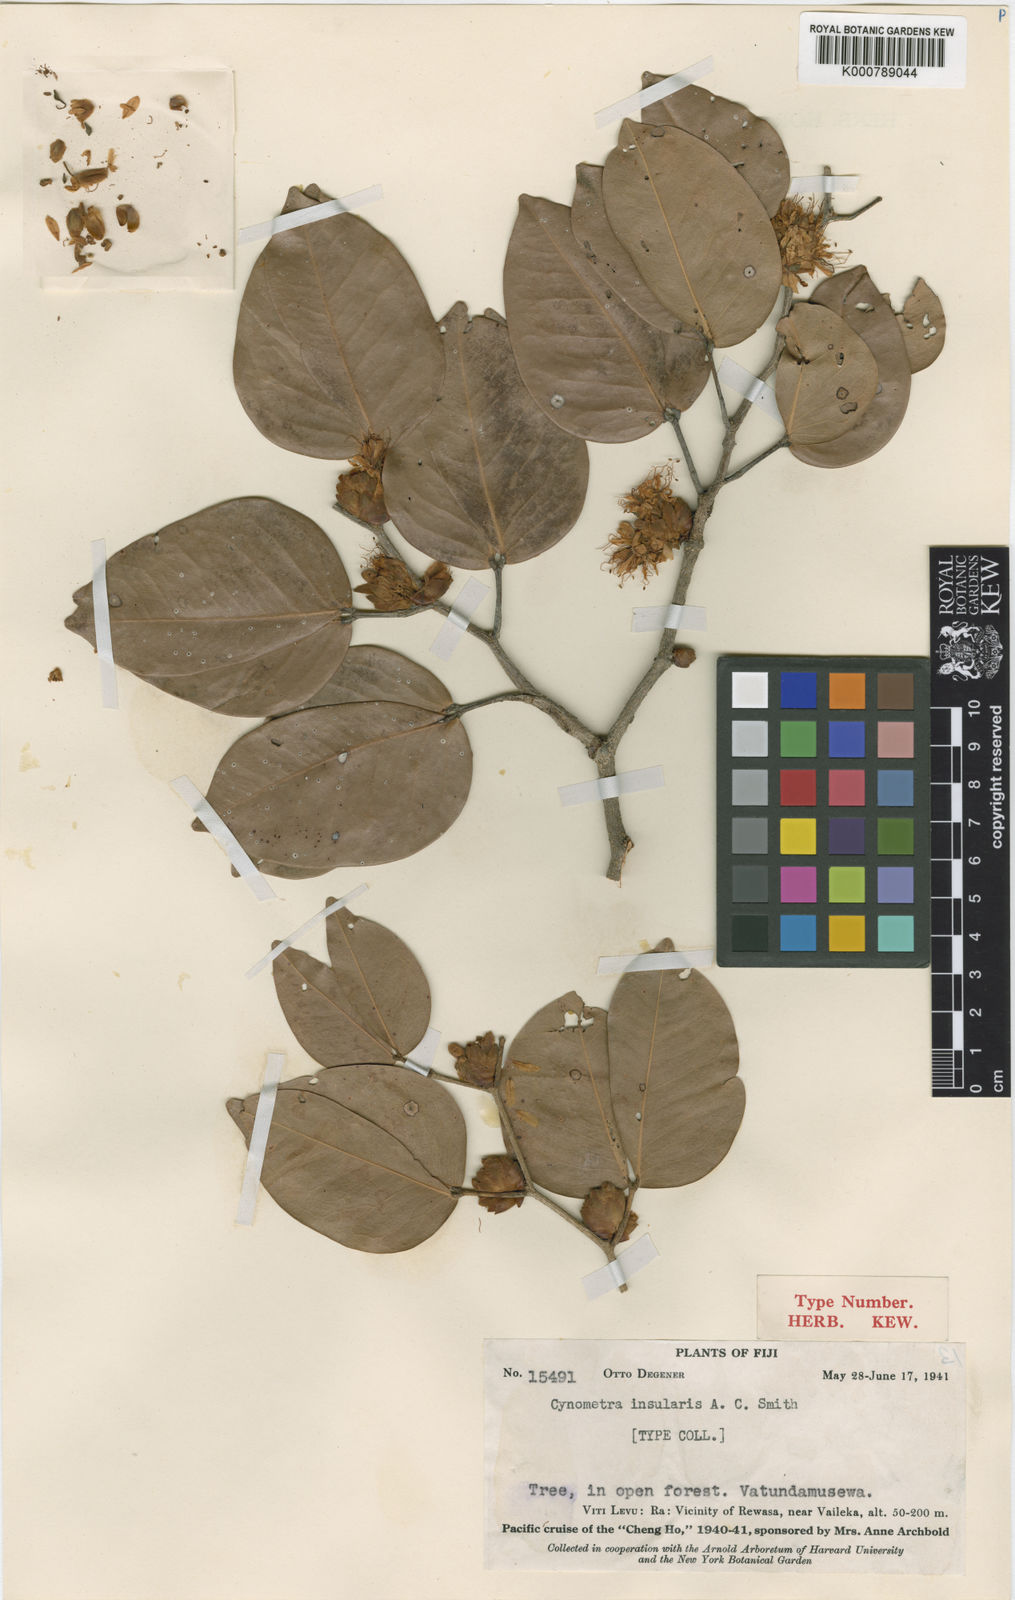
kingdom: Plantae
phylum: Tracheophyta
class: Magnoliopsida
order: Fabales
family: Fabaceae
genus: Cynometra
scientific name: Cynometra insularis
